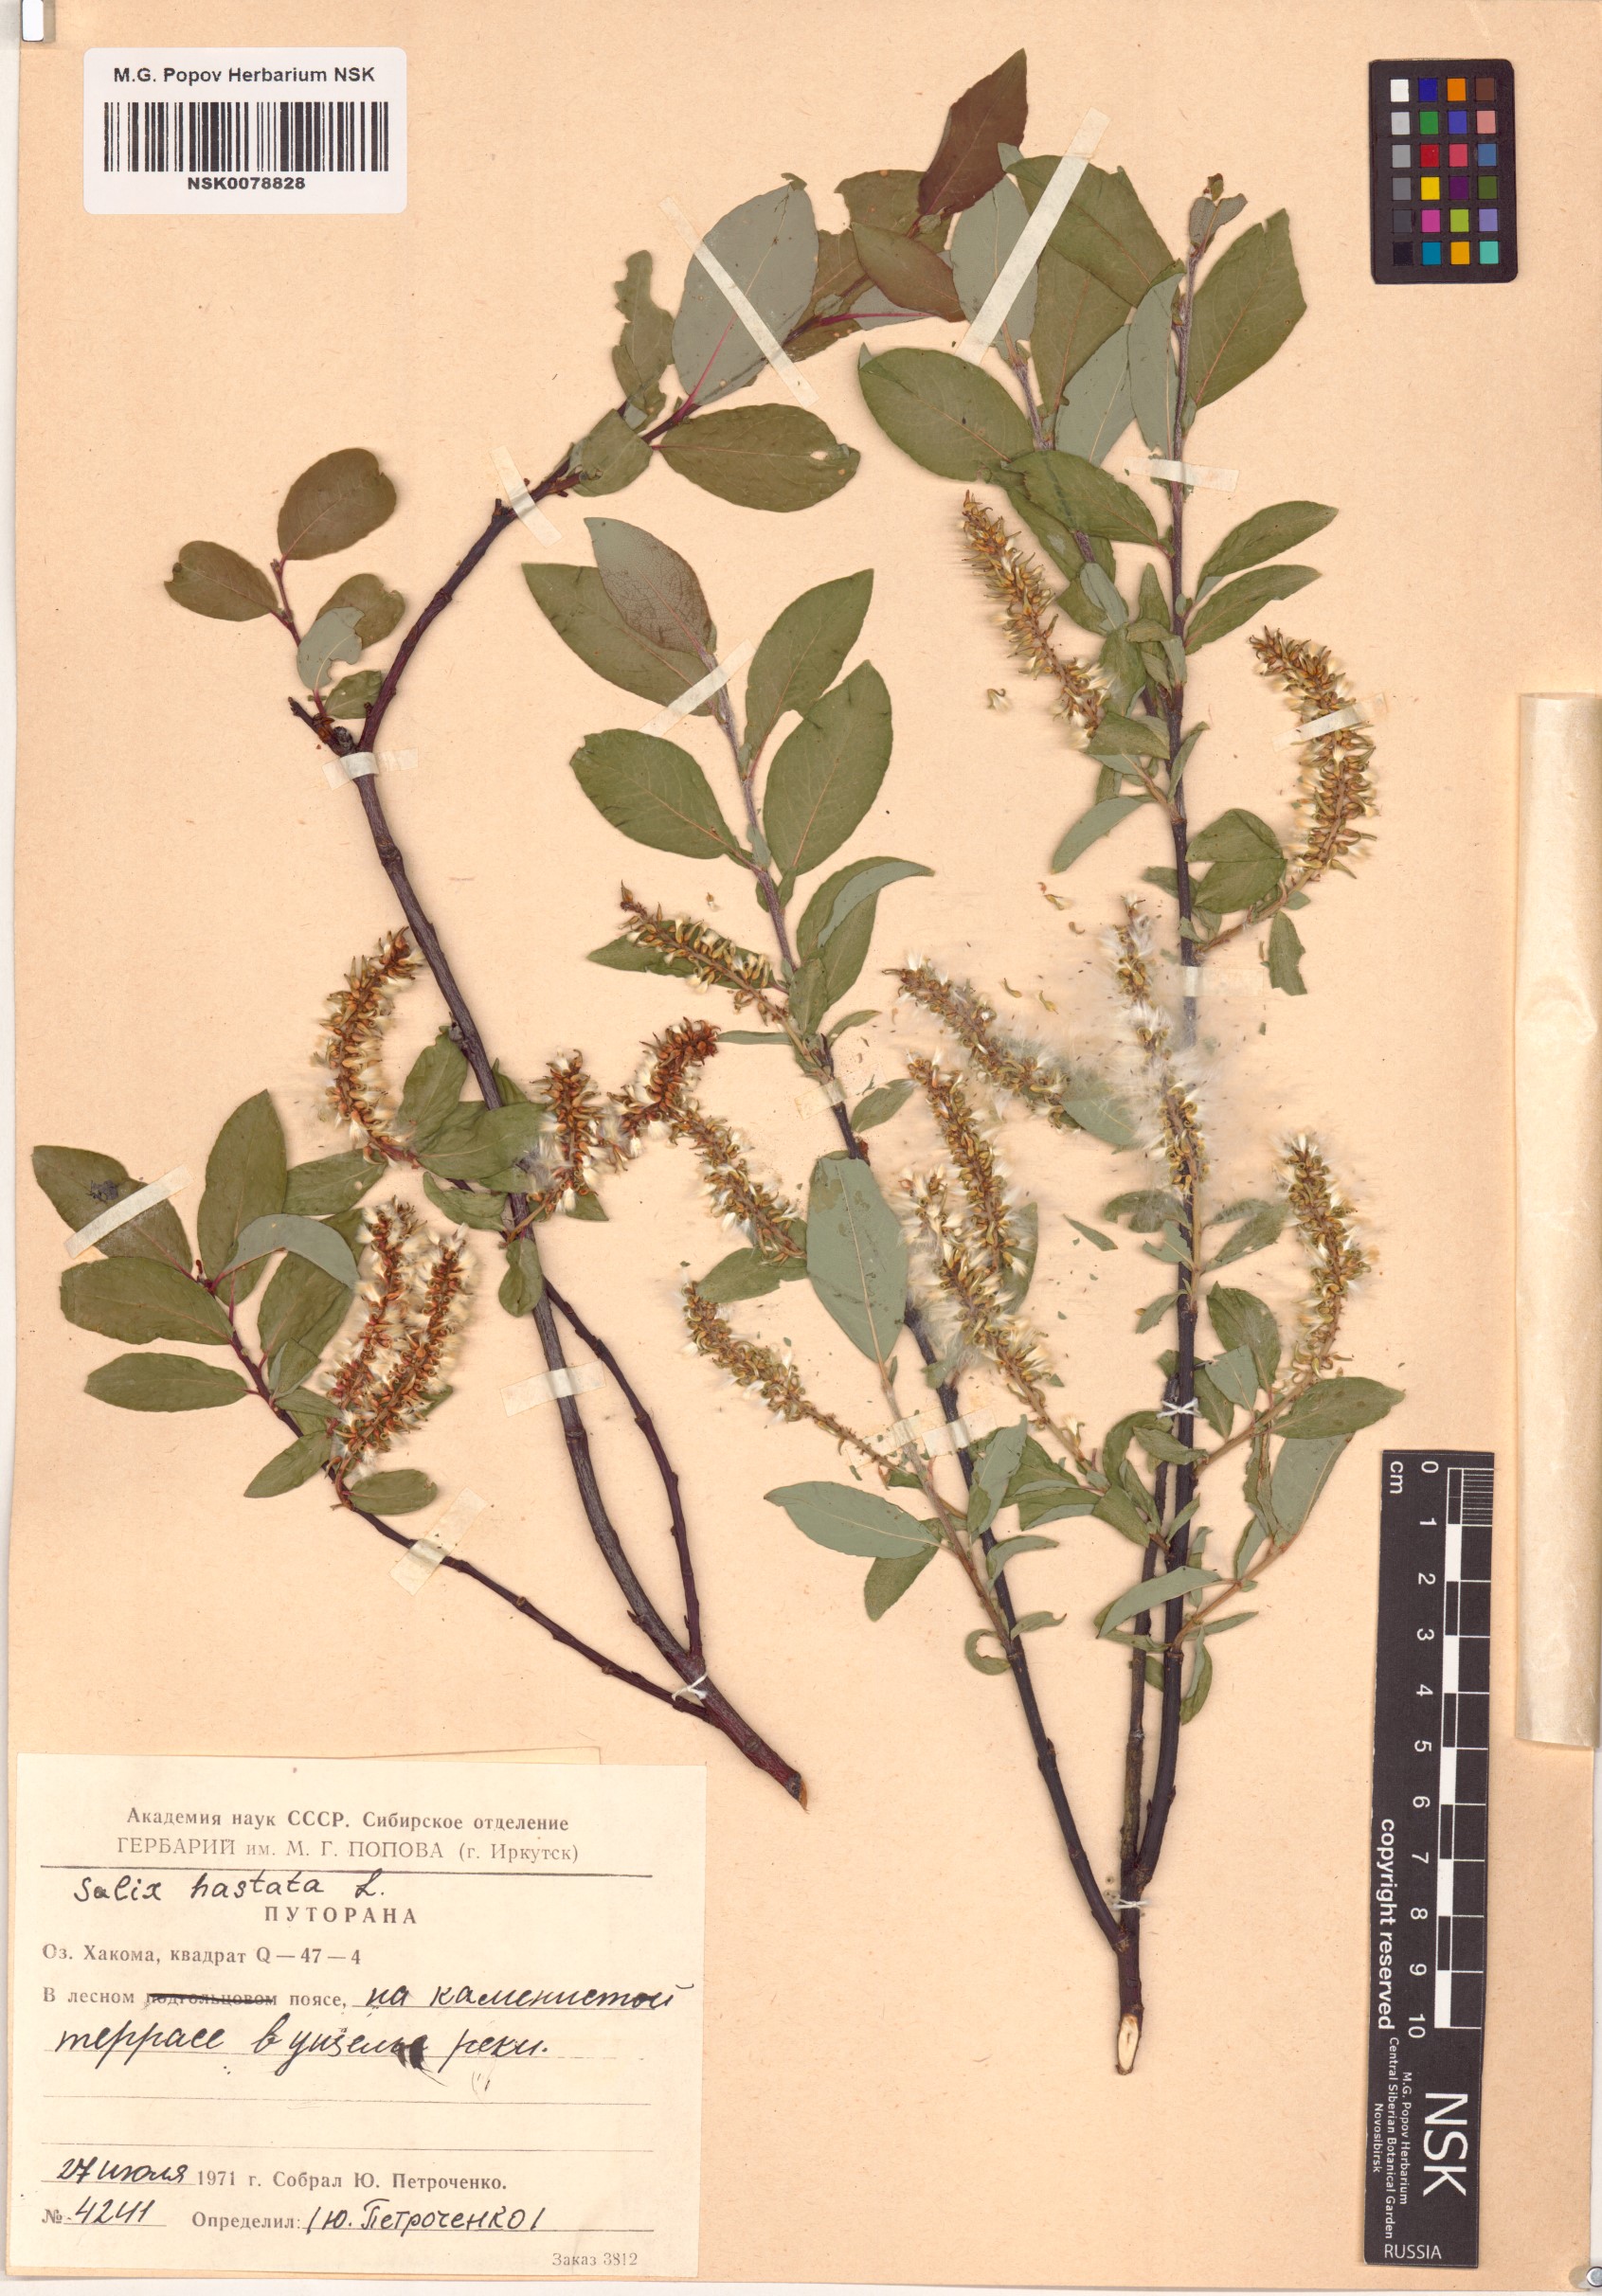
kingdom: Plantae
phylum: Tracheophyta
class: Magnoliopsida
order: Malpighiales
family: Salicaceae
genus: Salix
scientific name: Salix hastata
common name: Halberd willow
